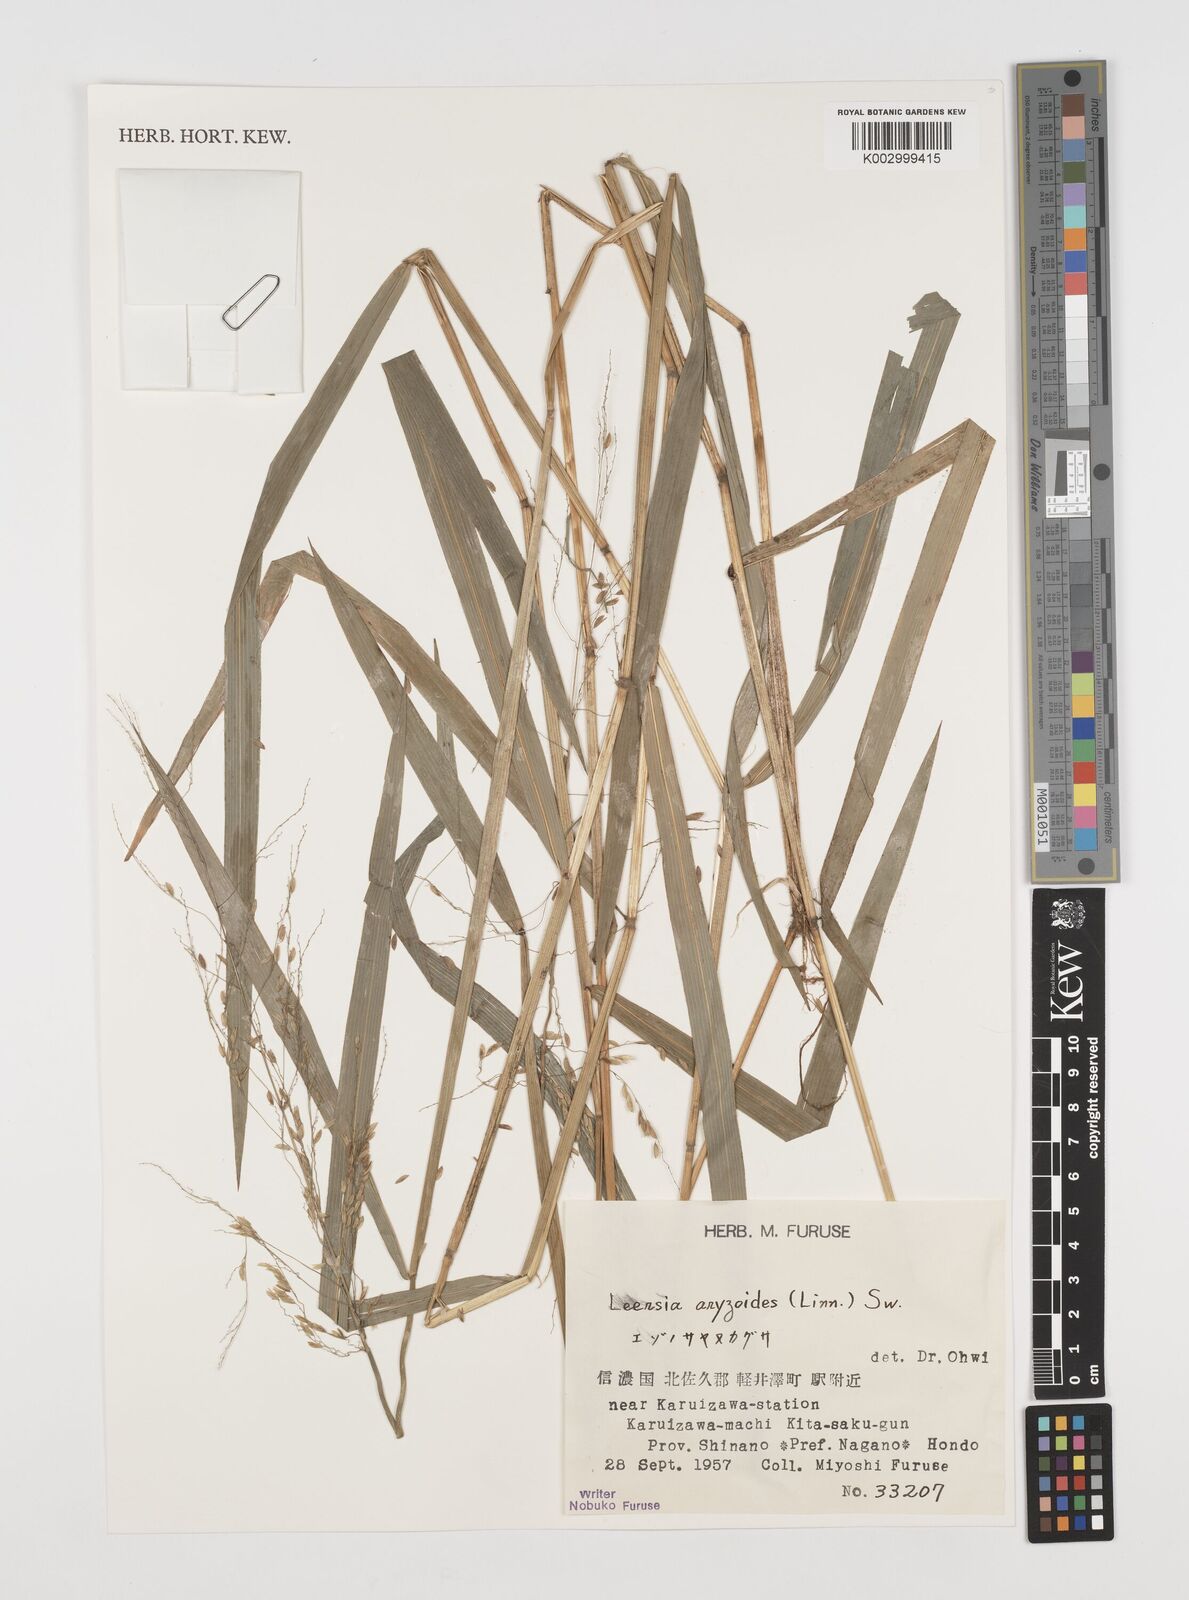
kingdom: Plantae
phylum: Tracheophyta
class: Liliopsida
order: Poales
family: Poaceae
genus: Leersia
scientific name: Leersia oryzoides
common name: Cut-grass
